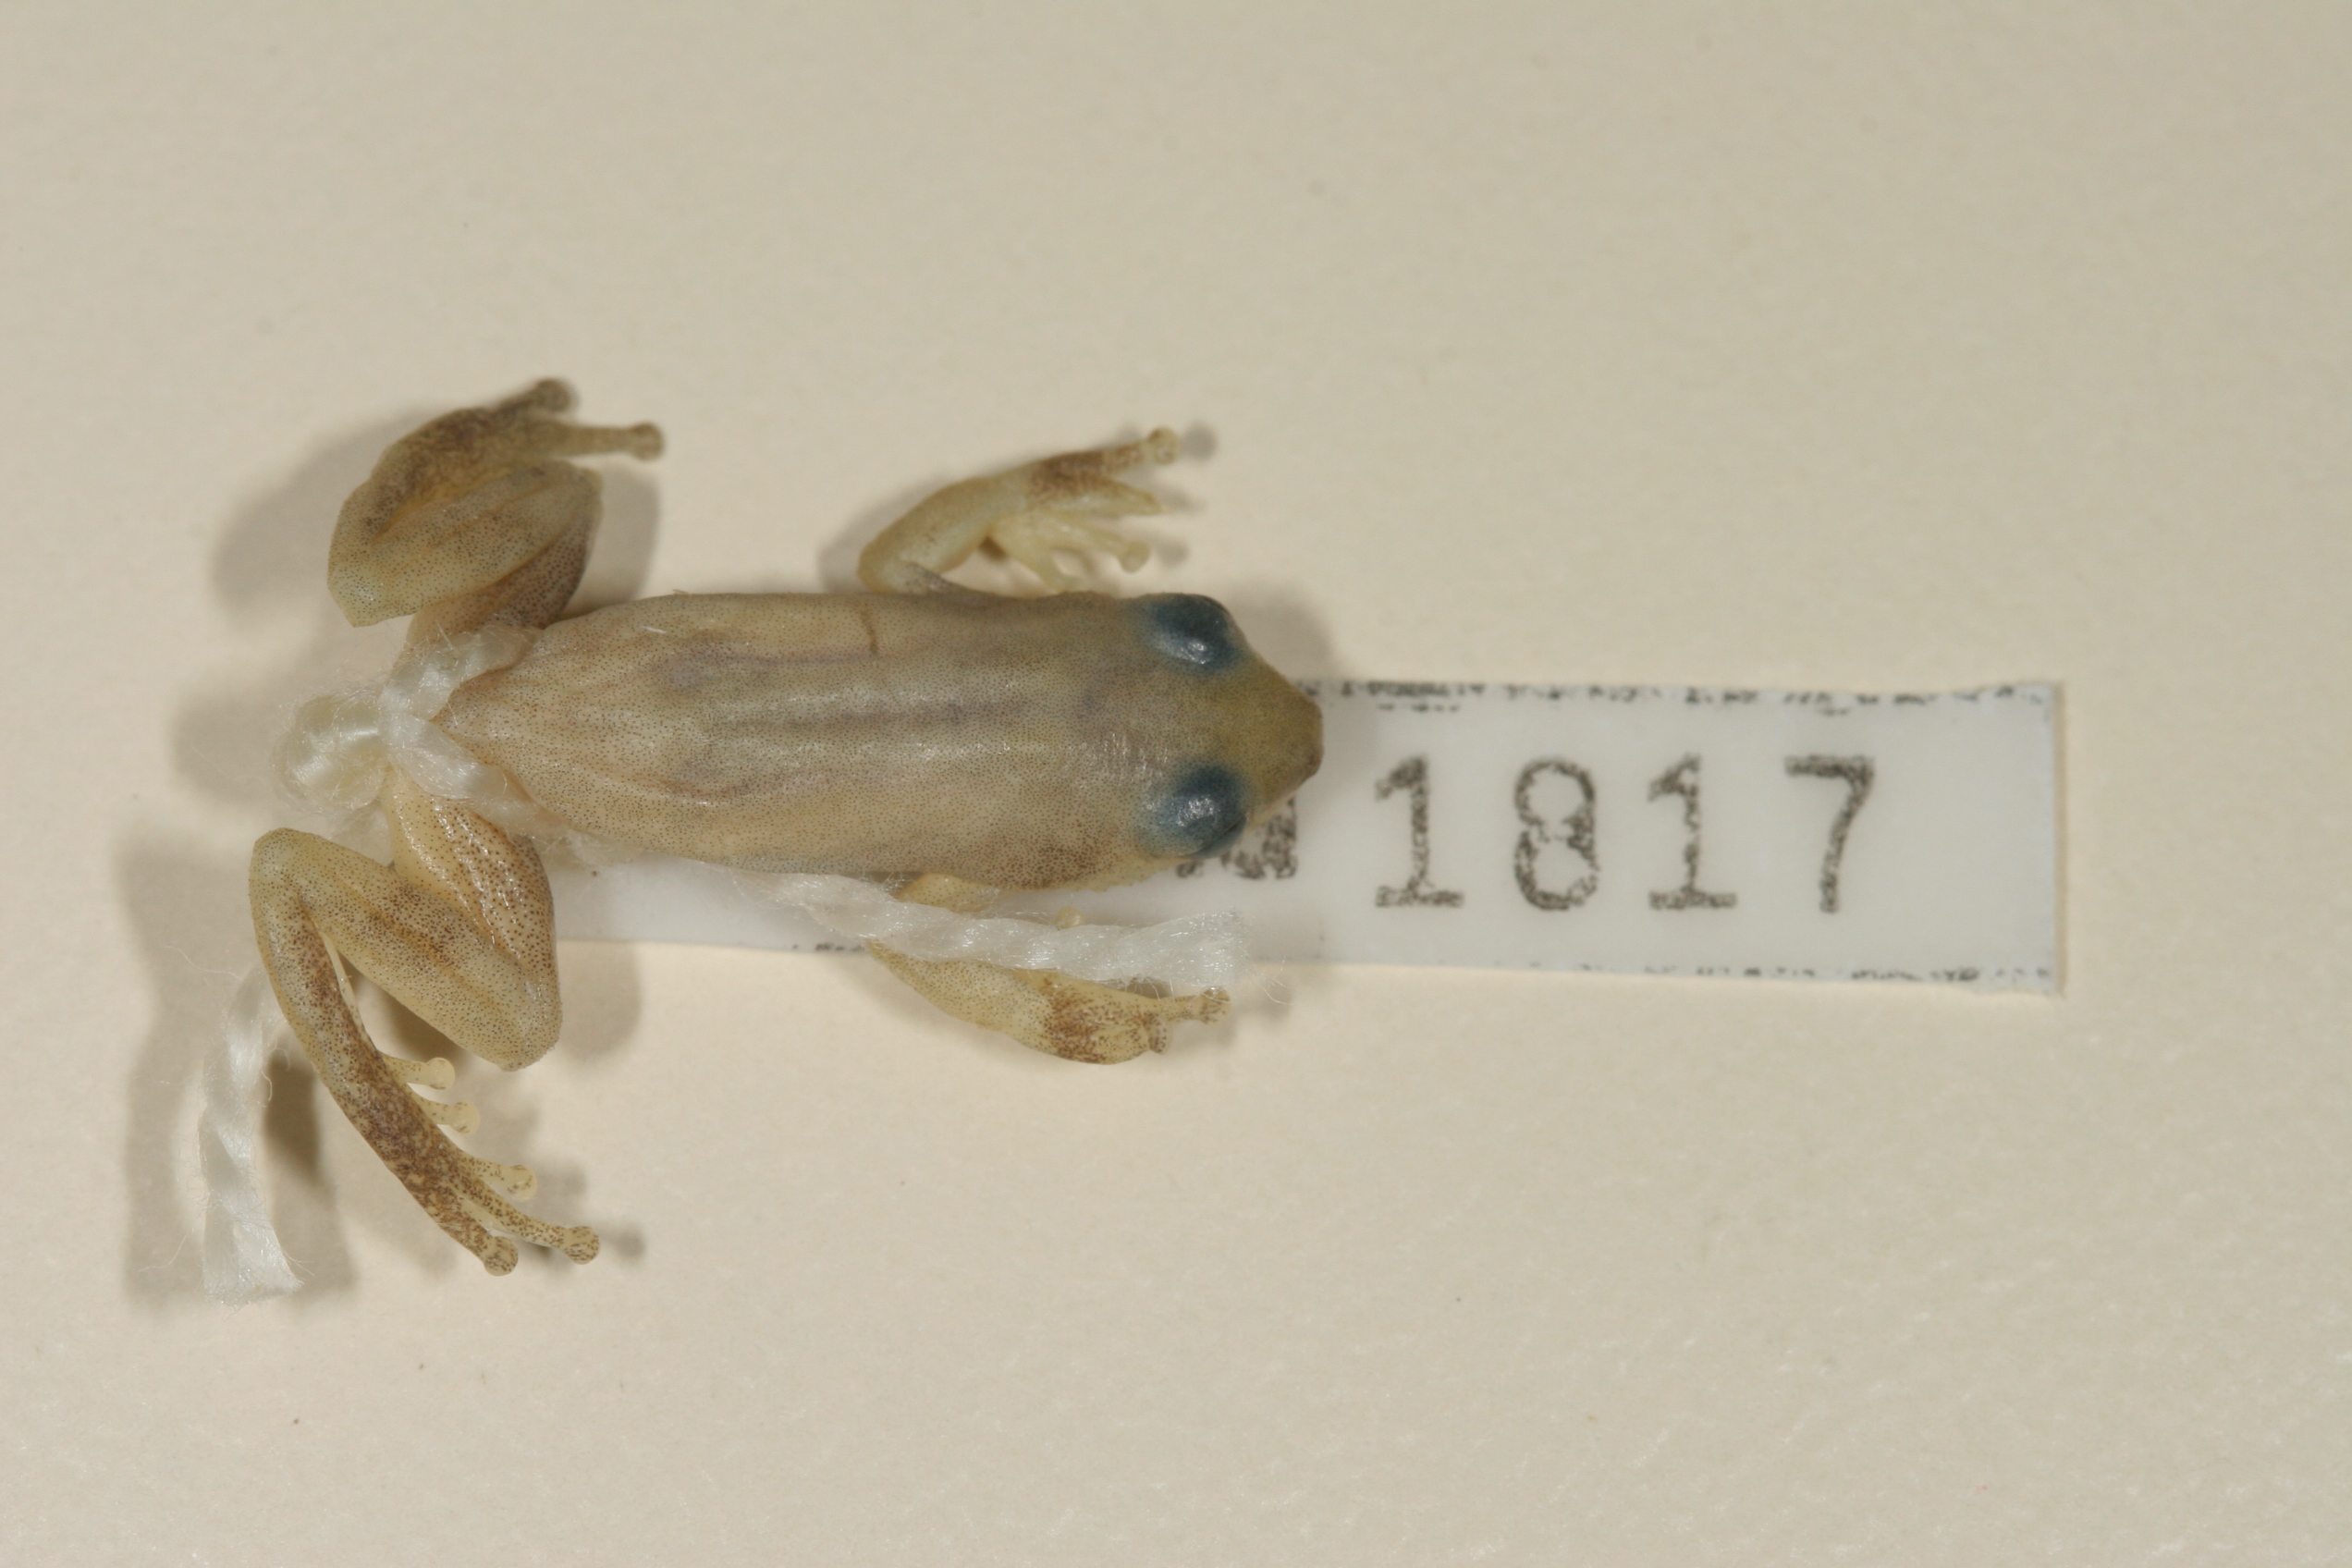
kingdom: Animalia
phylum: Chordata
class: Amphibia
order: Anura
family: Hyperoliidae
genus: Afrixalus
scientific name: Afrixalus delicatus
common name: Delicate leaf-folding frog
